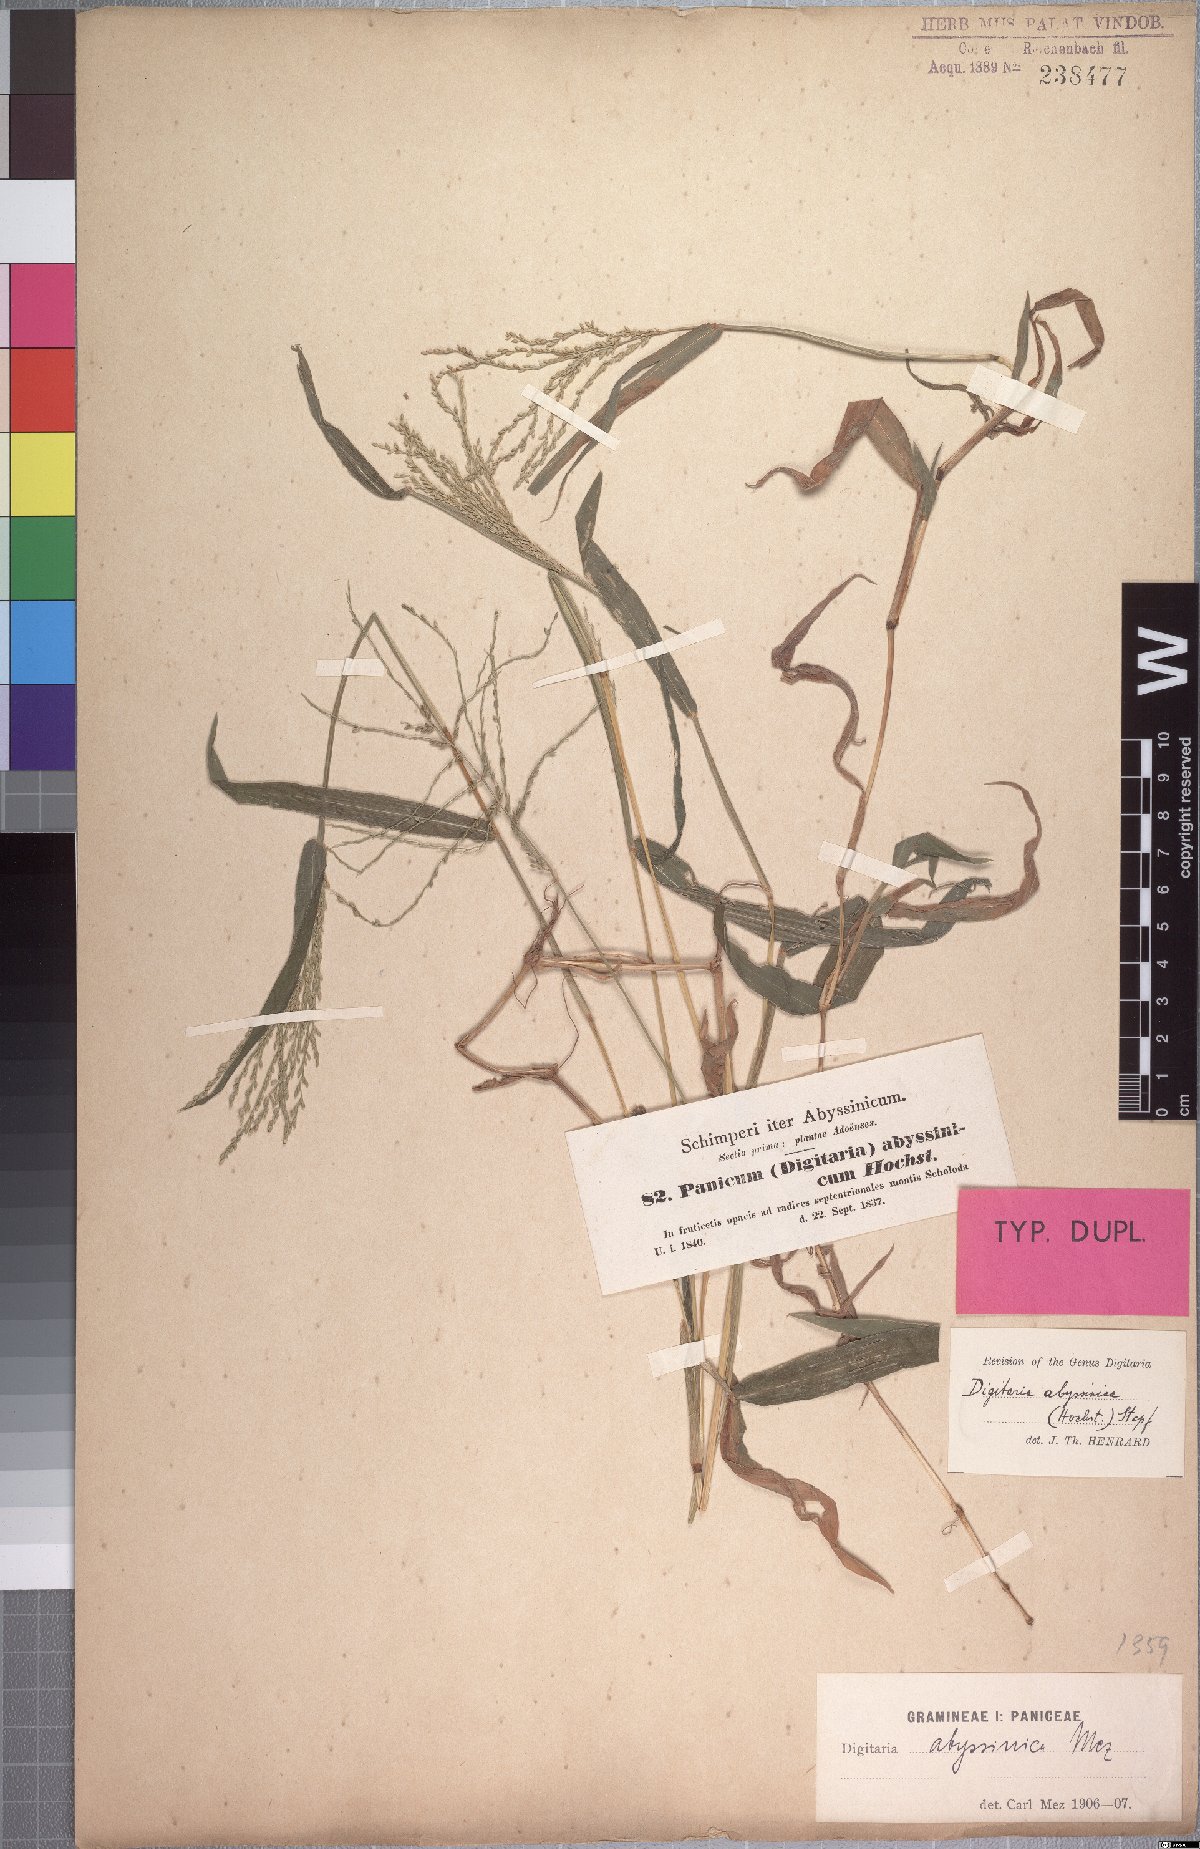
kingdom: Plantae
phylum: Tracheophyta
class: Liliopsida
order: Poales
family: Poaceae
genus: Digitaria
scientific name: Digitaria abyssinica
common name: African couchgrass
